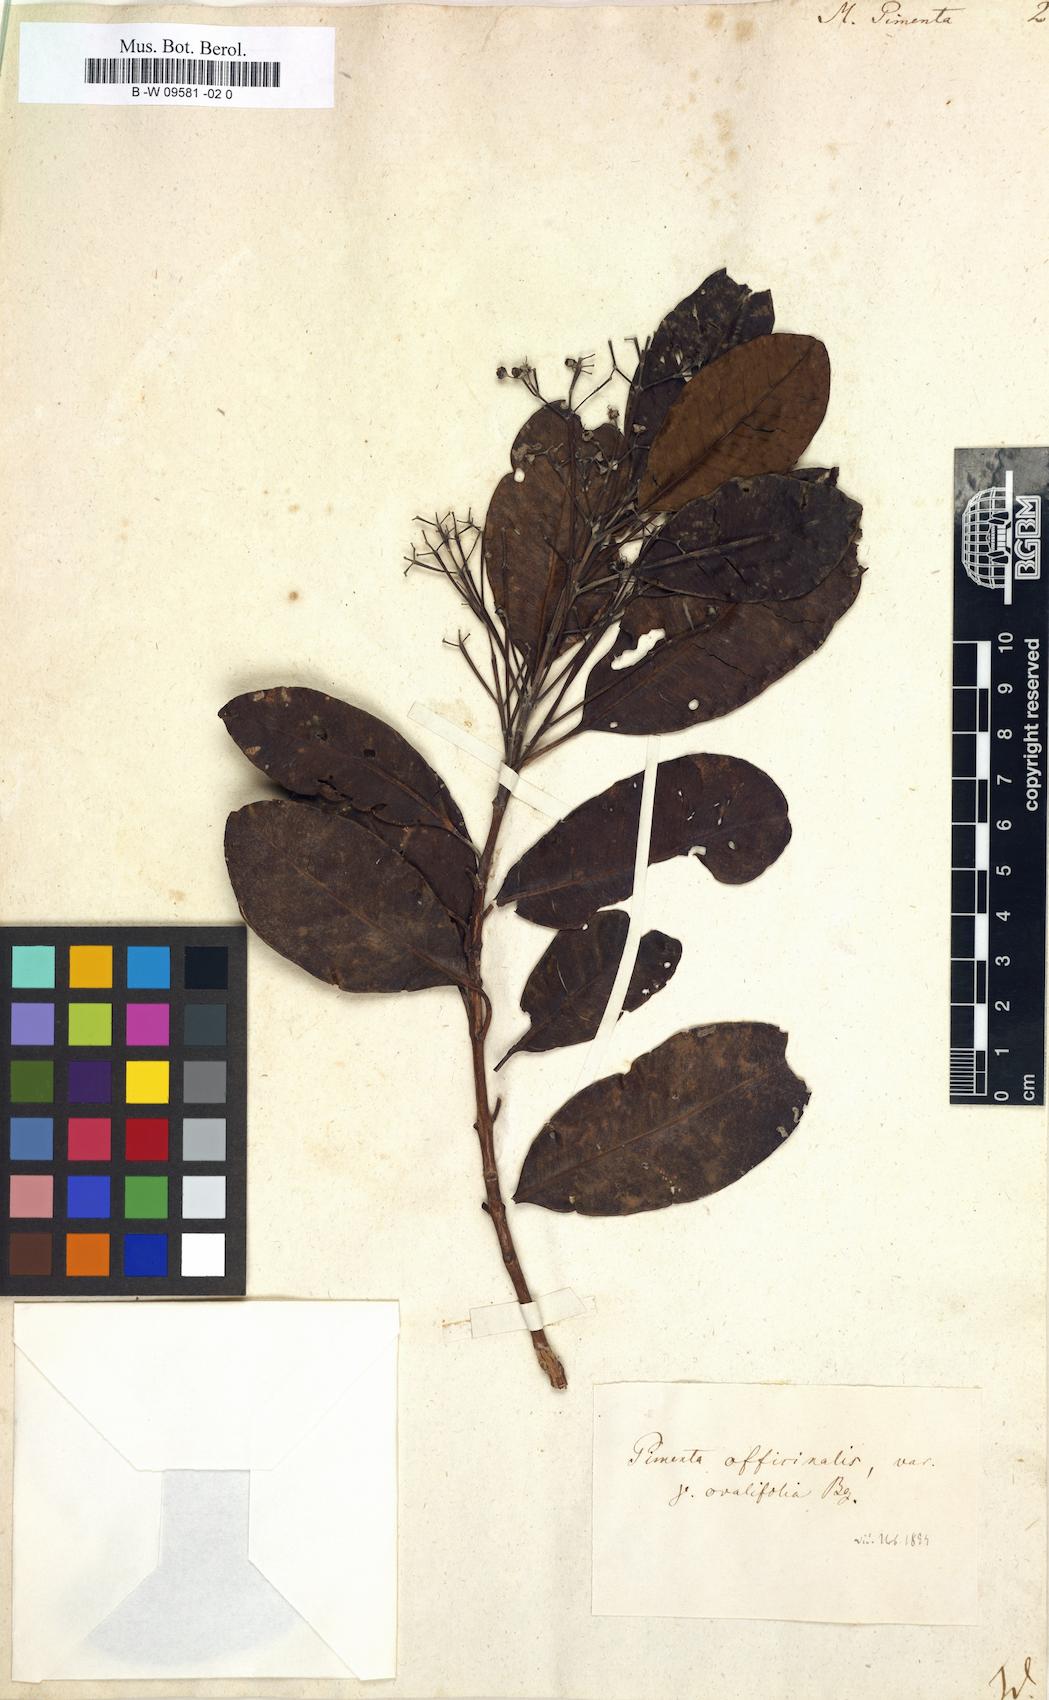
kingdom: Plantae
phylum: Tracheophyta
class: Magnoliopsida
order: Myrtales
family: Myrtaceae
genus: Pimenta
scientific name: Pimenta dioica
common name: Allspice
